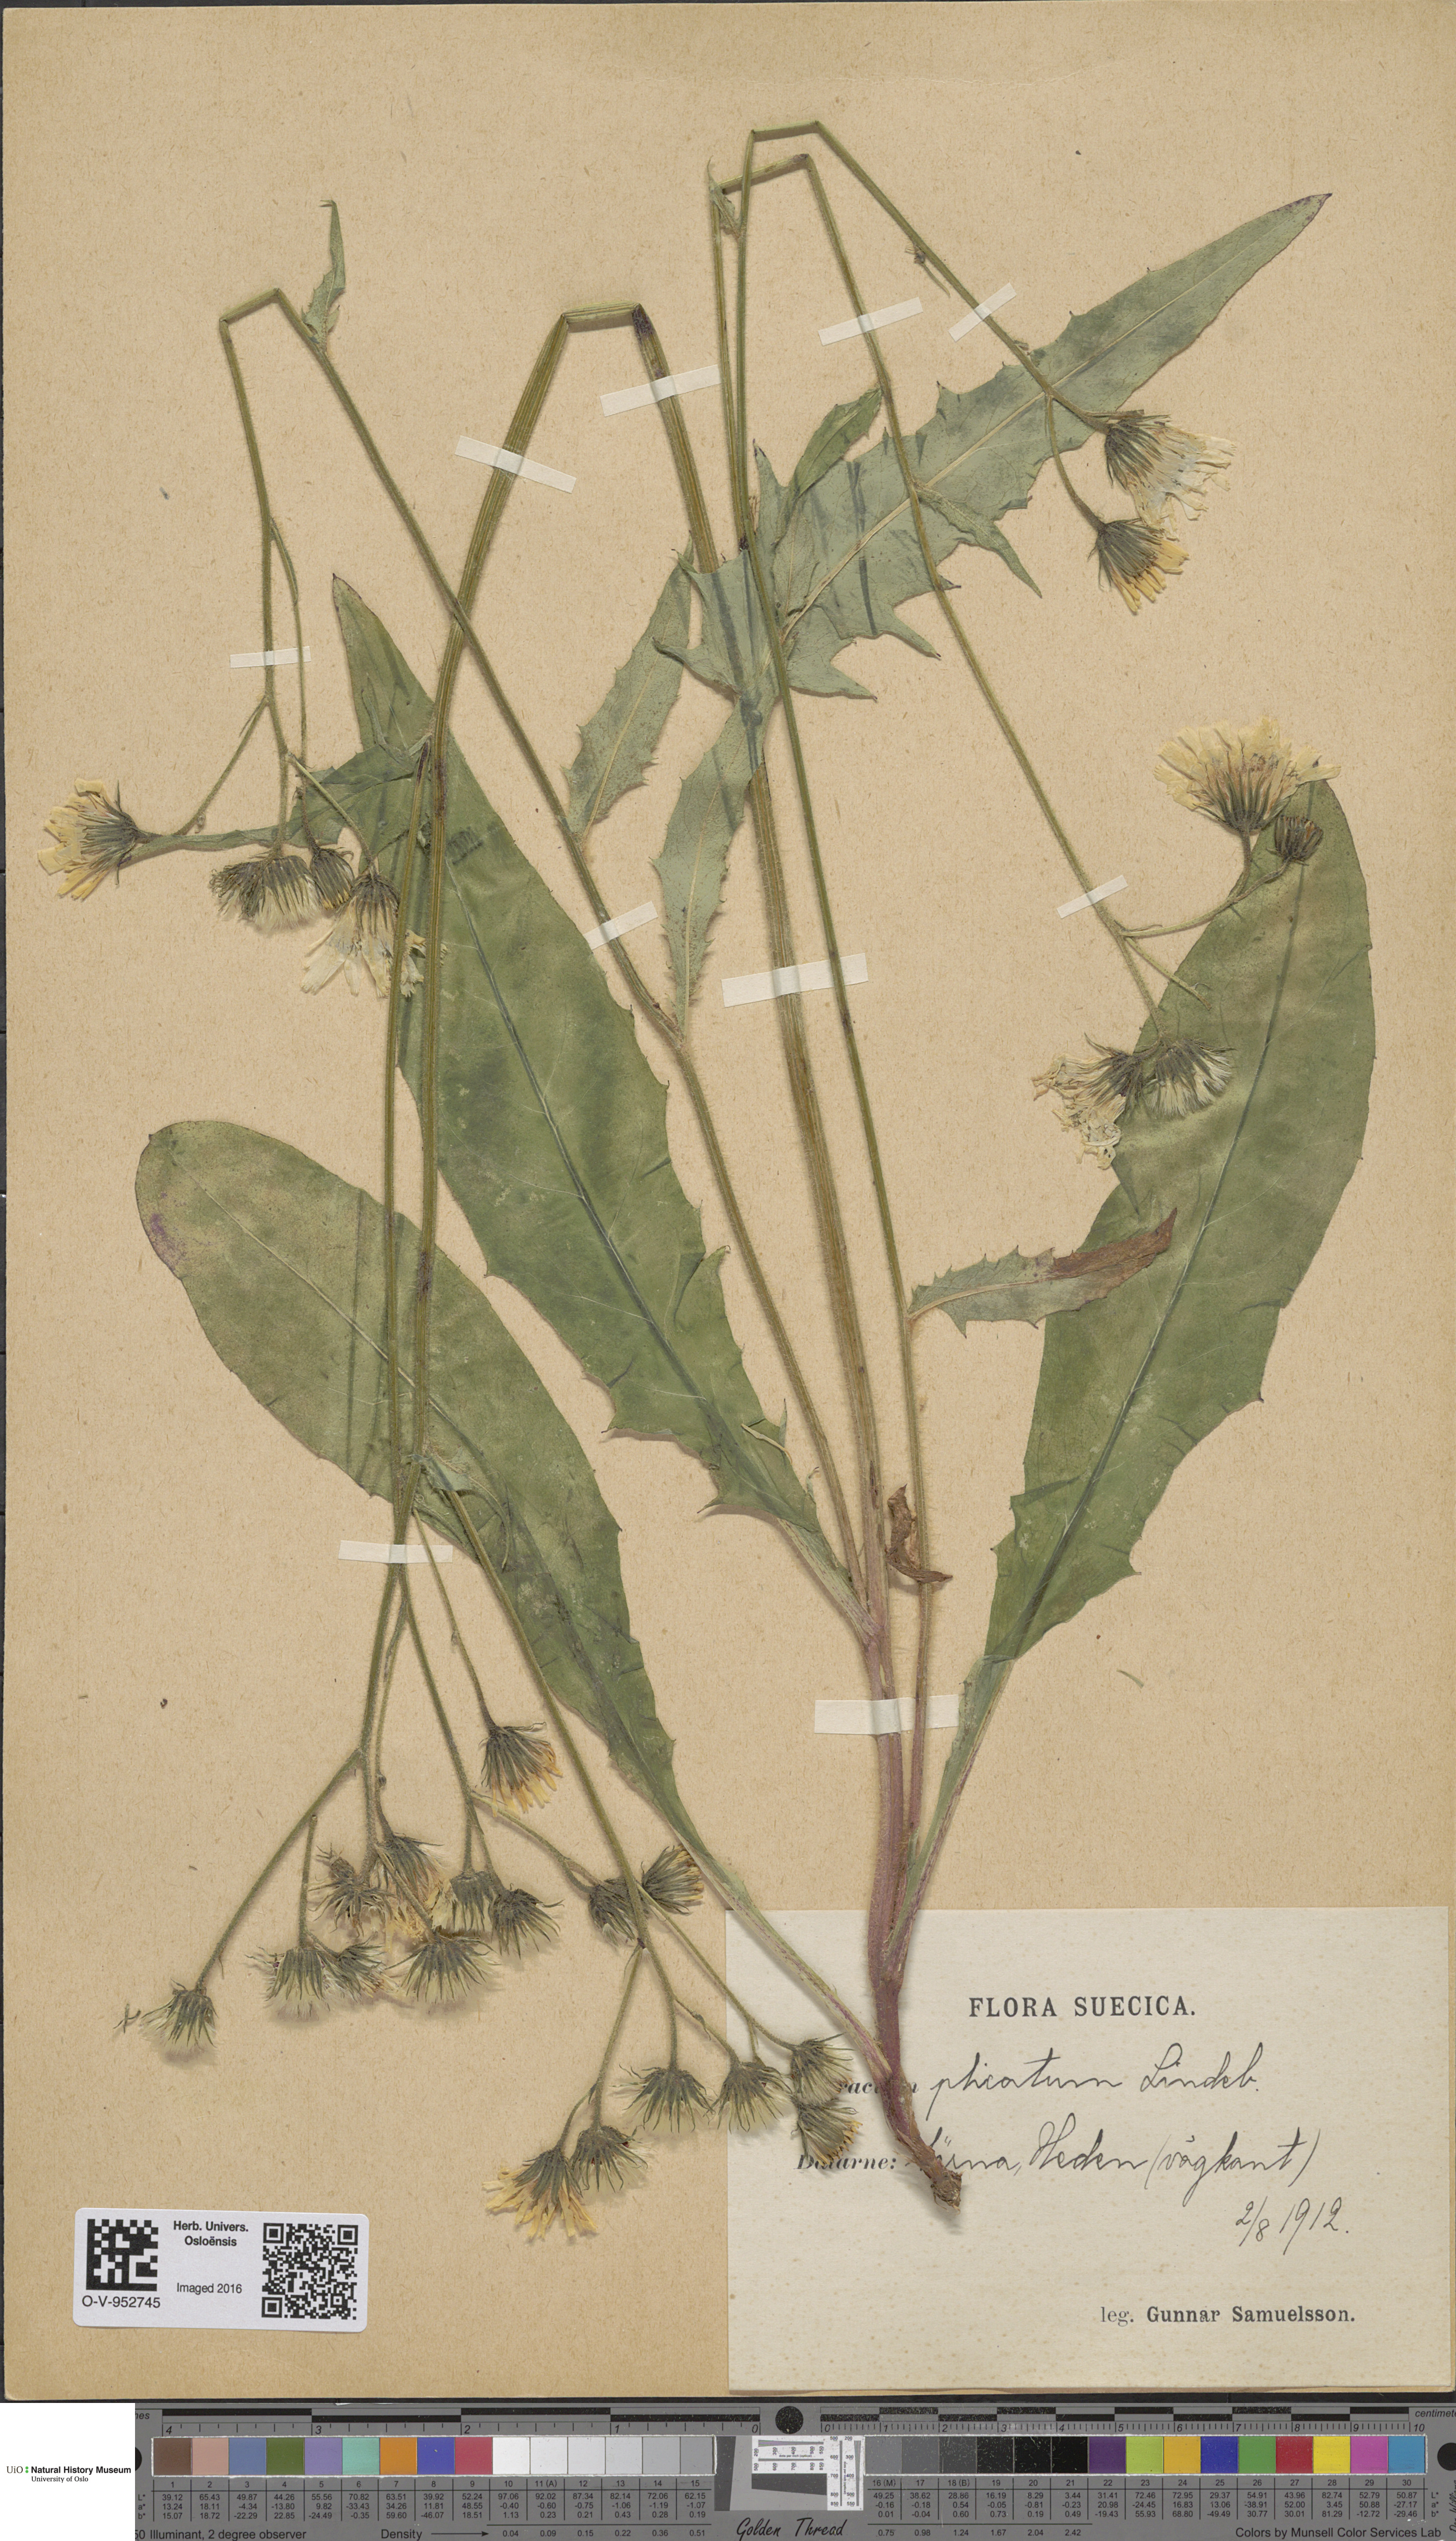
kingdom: Plantae
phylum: Tracheophyta
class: Magnoliopsida
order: Asterales
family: Asteraceae
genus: Hieracium
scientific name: Hieracium plicatum
